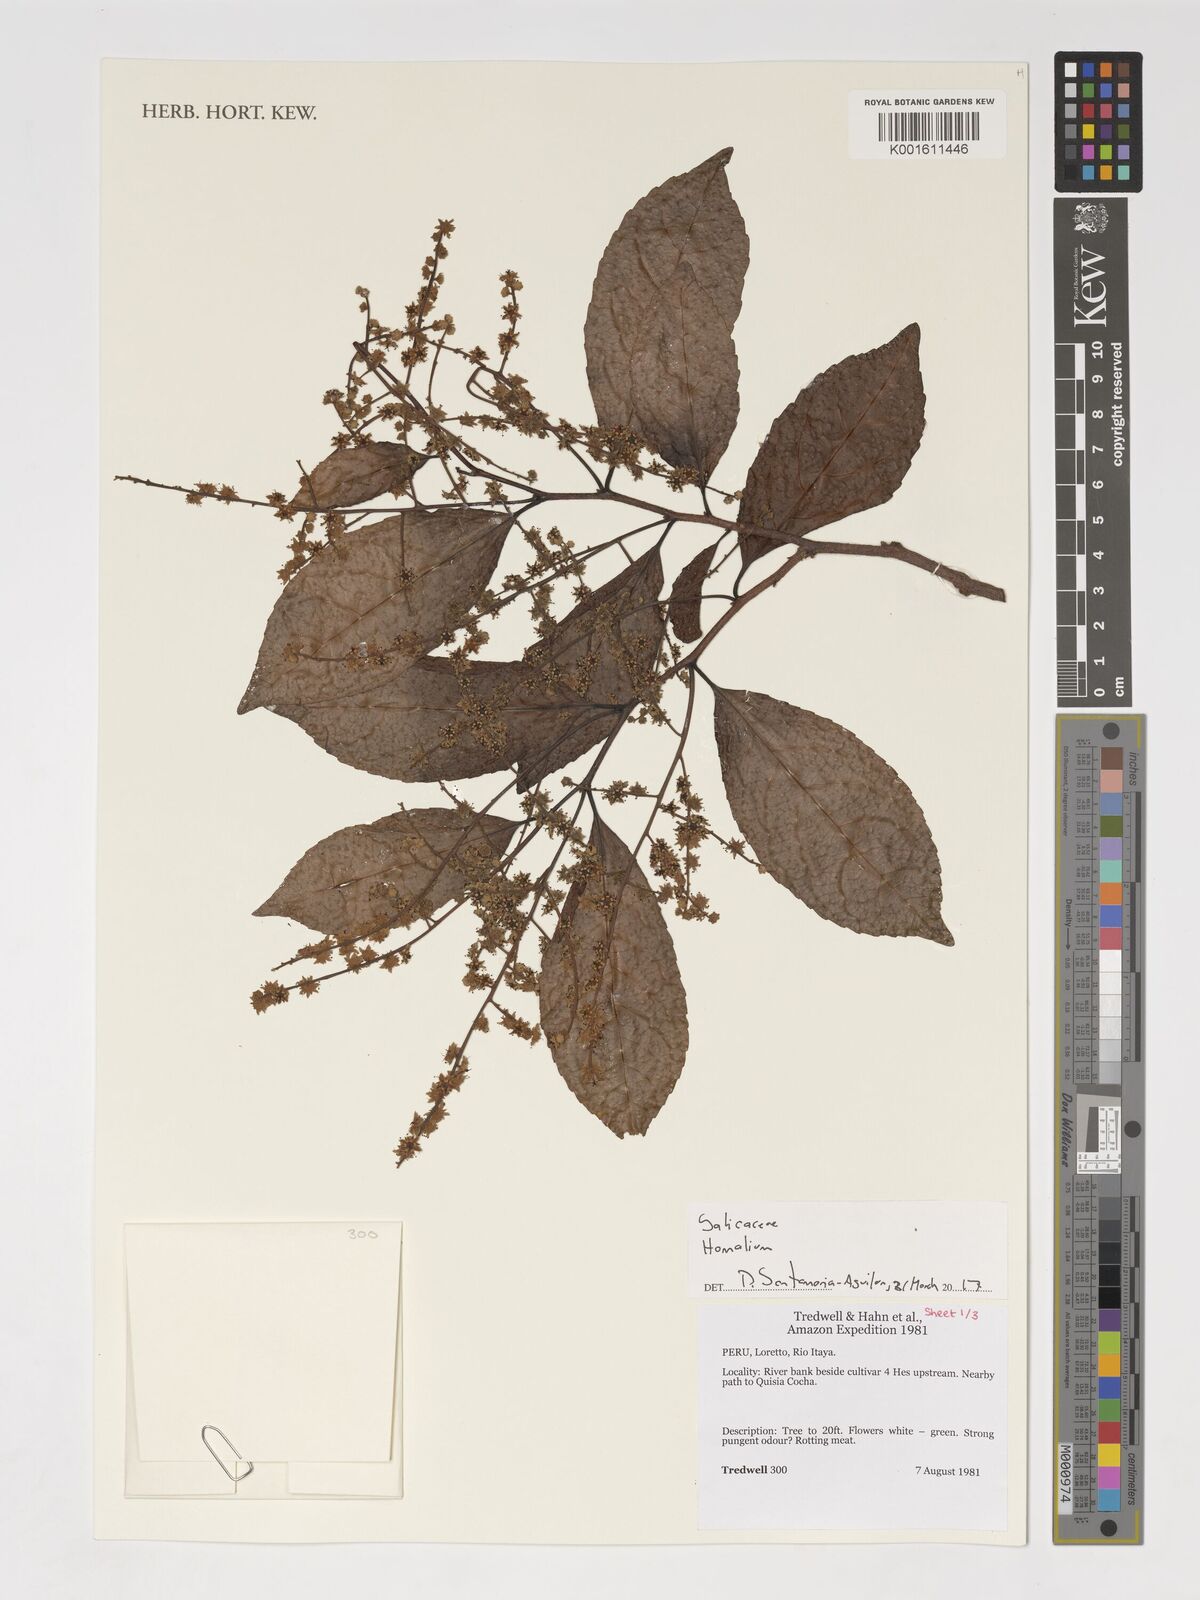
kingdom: Plantae
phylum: Tracheophyta
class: Magnoliopsida
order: Malpighiales
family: Salicaceae
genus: Homalium
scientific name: Homalium
